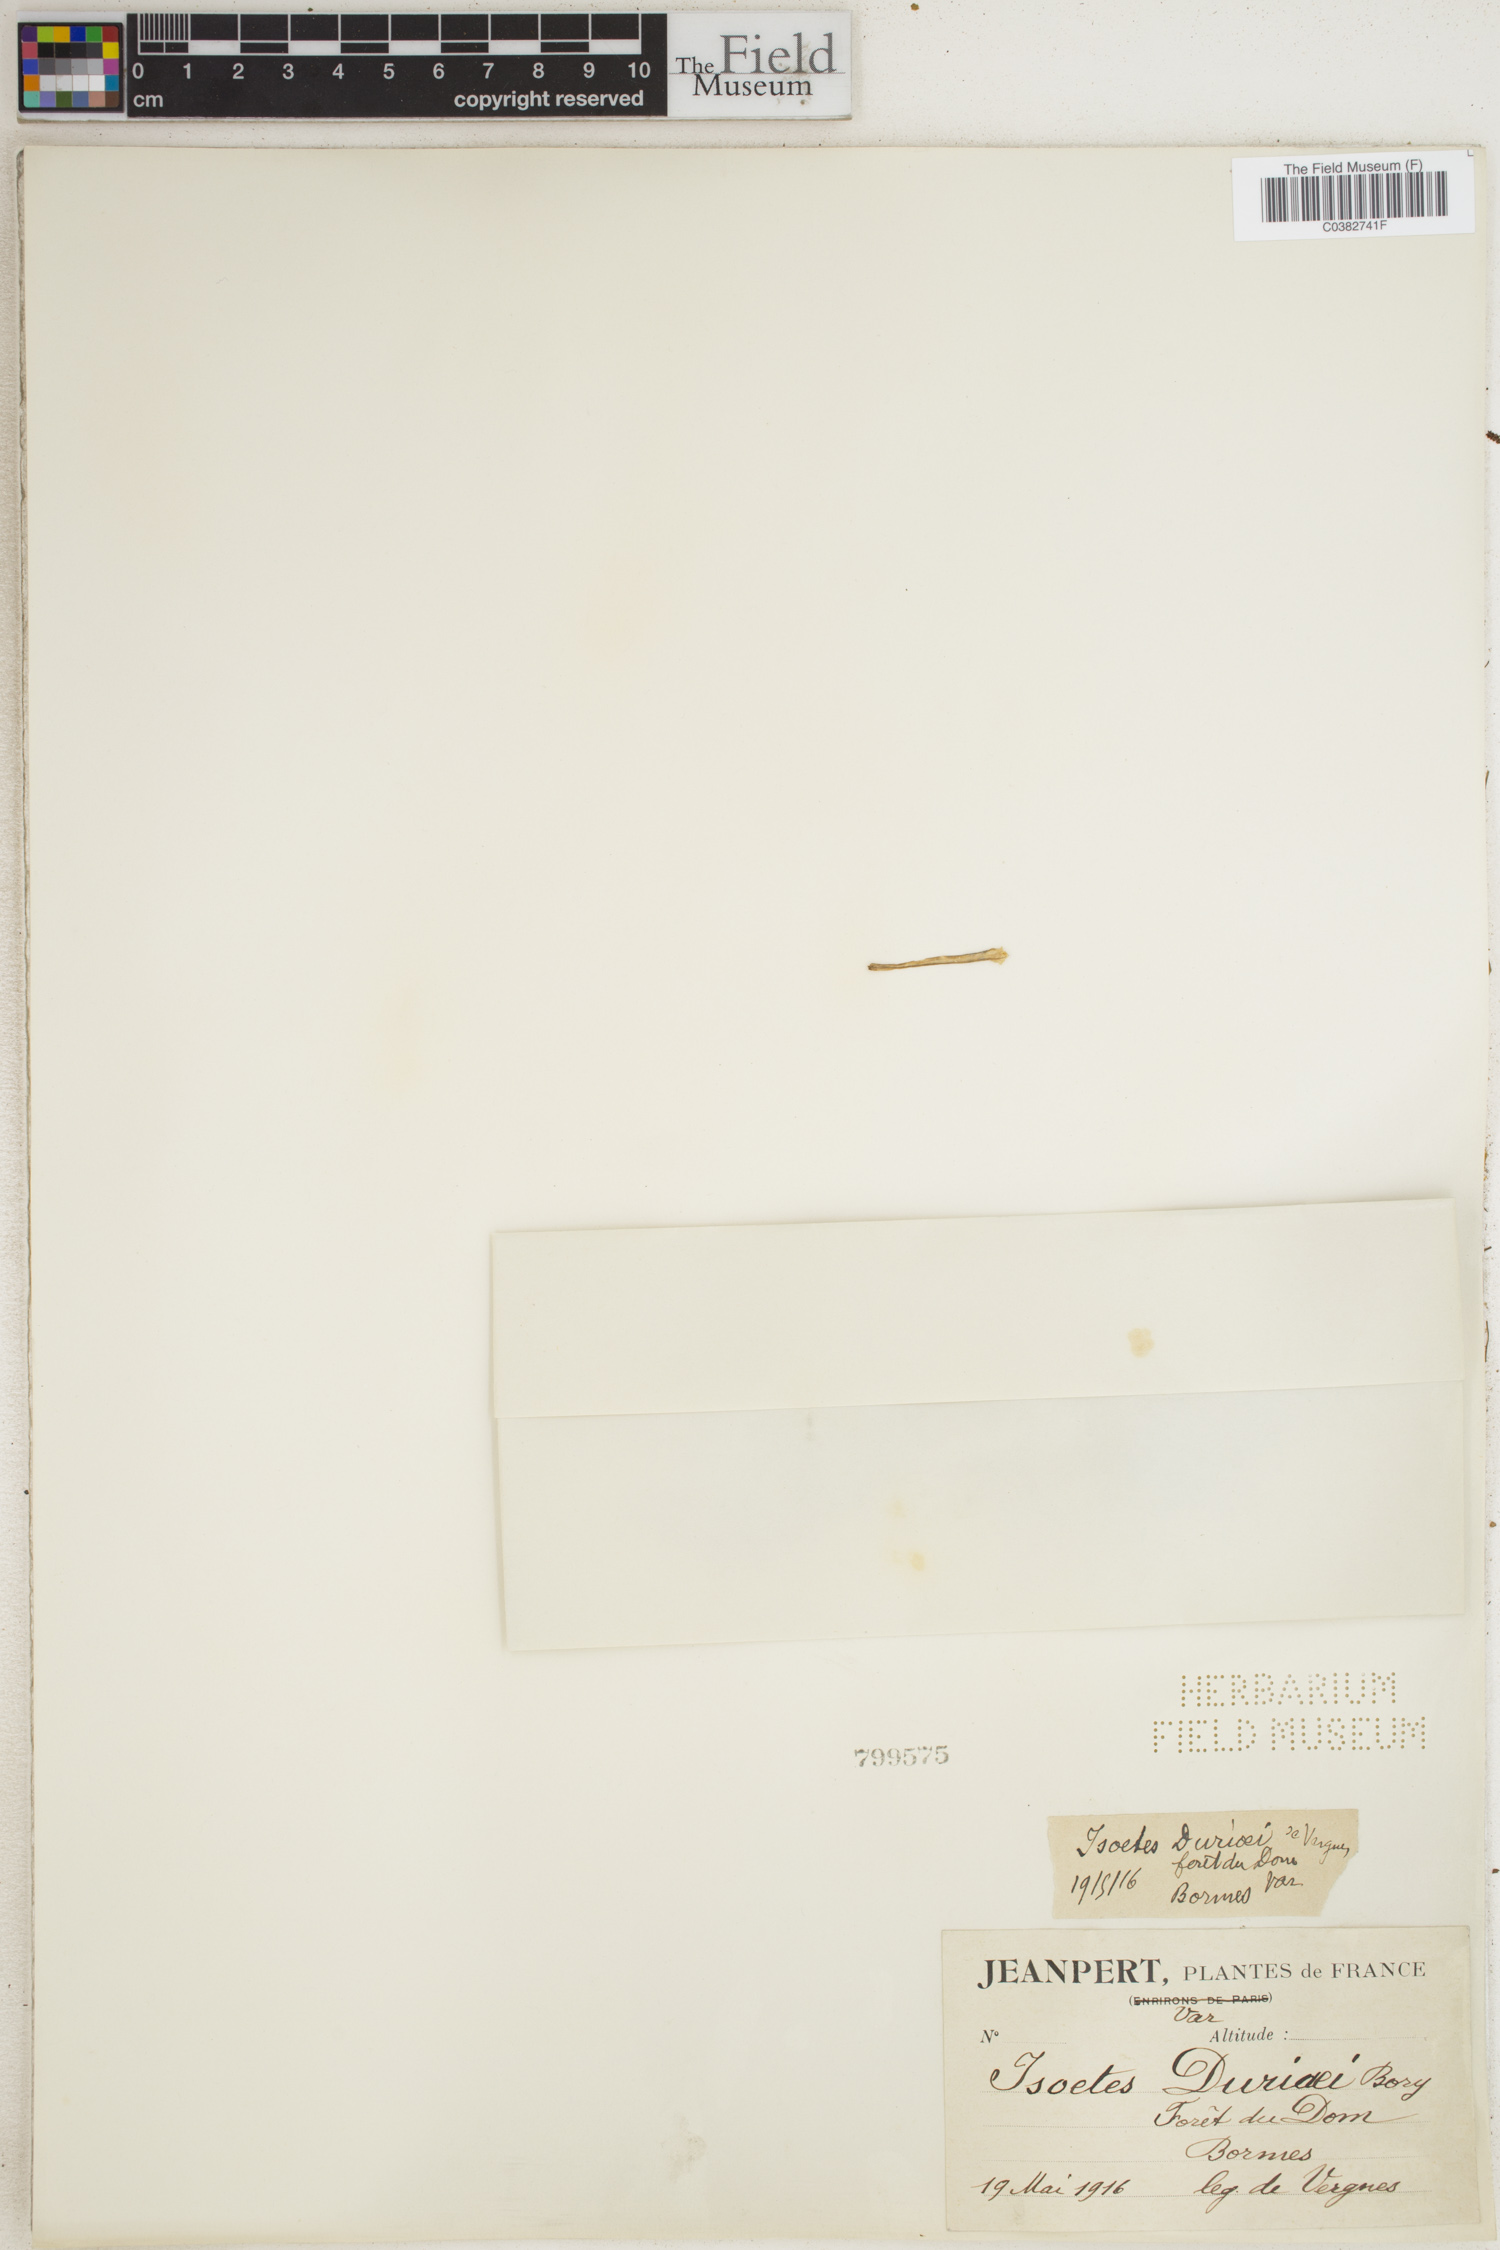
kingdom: Plantae
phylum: Tracheophyta
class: Lycopodiopsida
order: Isoetales
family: Isoetaceae
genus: Isoetes
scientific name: Isoetes duriei
